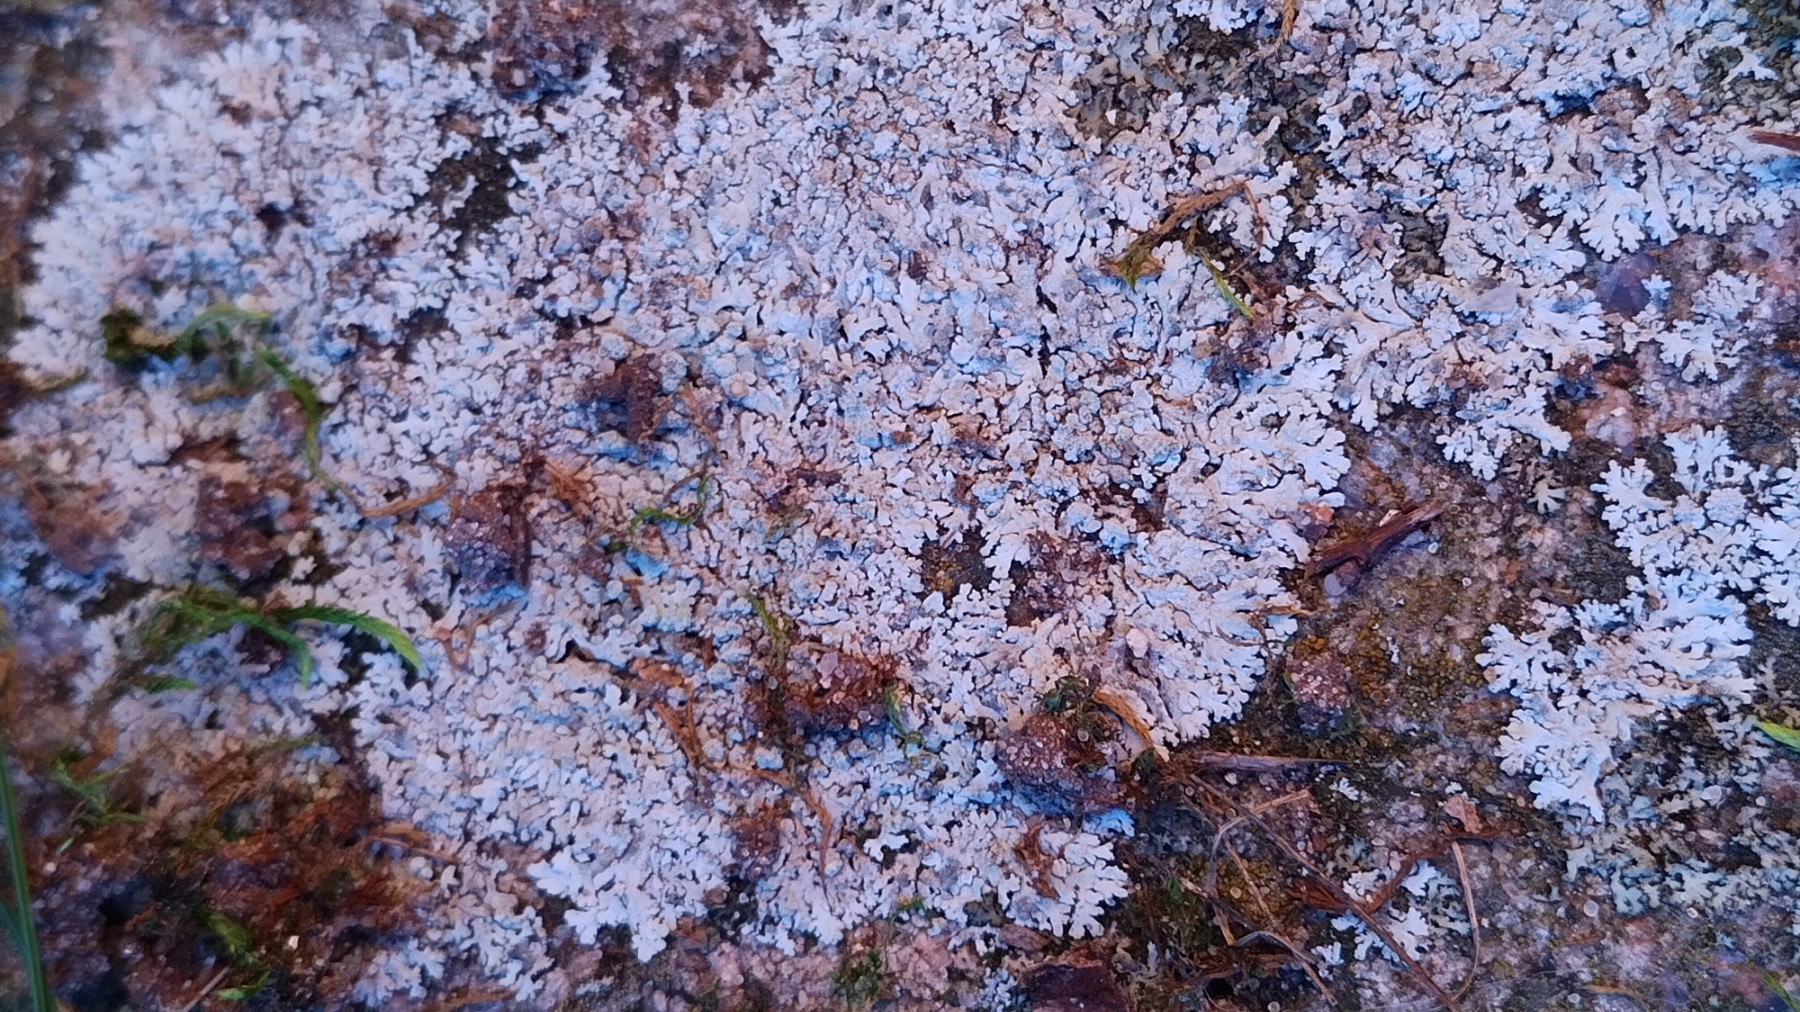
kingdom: Fungi
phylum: Ascomycota
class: Lecanoromycetes
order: Caliciales
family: Physciaceae
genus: Physcia
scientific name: Physcia caesia
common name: blågrå rosetlav
